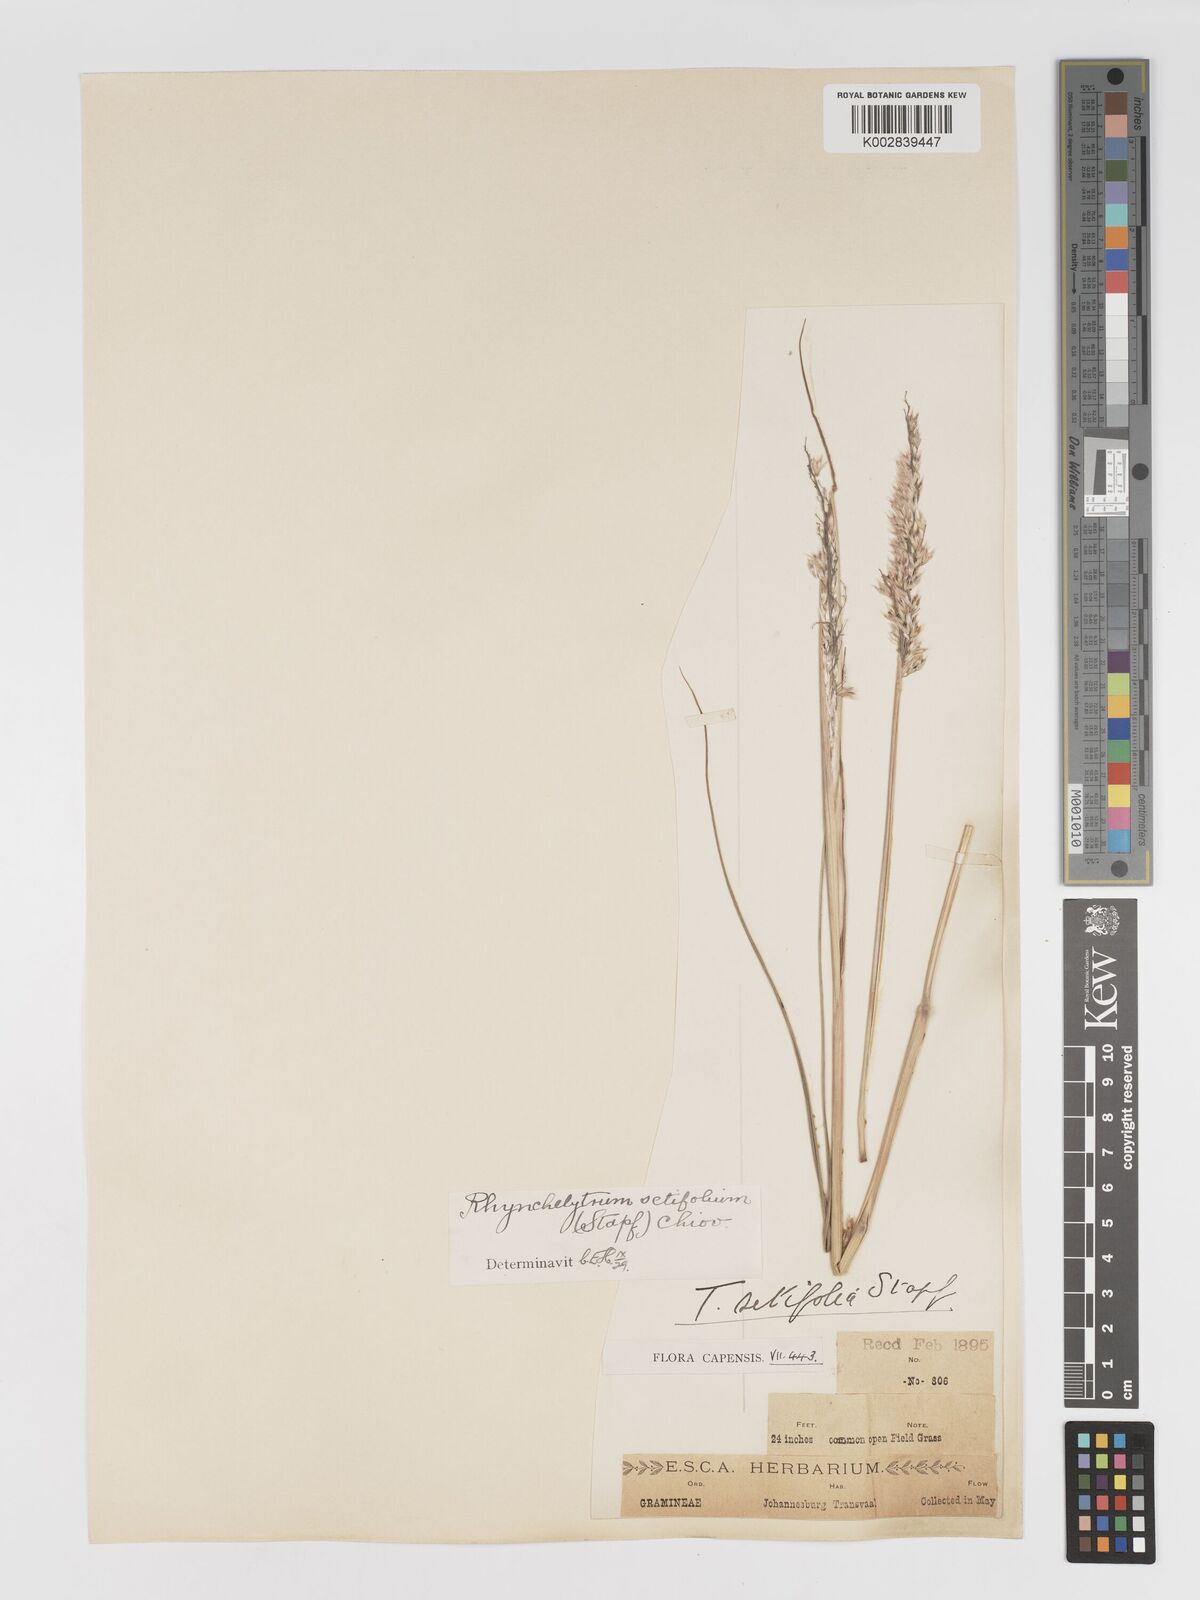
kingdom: Plantae
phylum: Tracheophyta
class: Liliopsida
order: Poales
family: Poaceae
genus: Melinis
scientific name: Melinis nerviglumis
